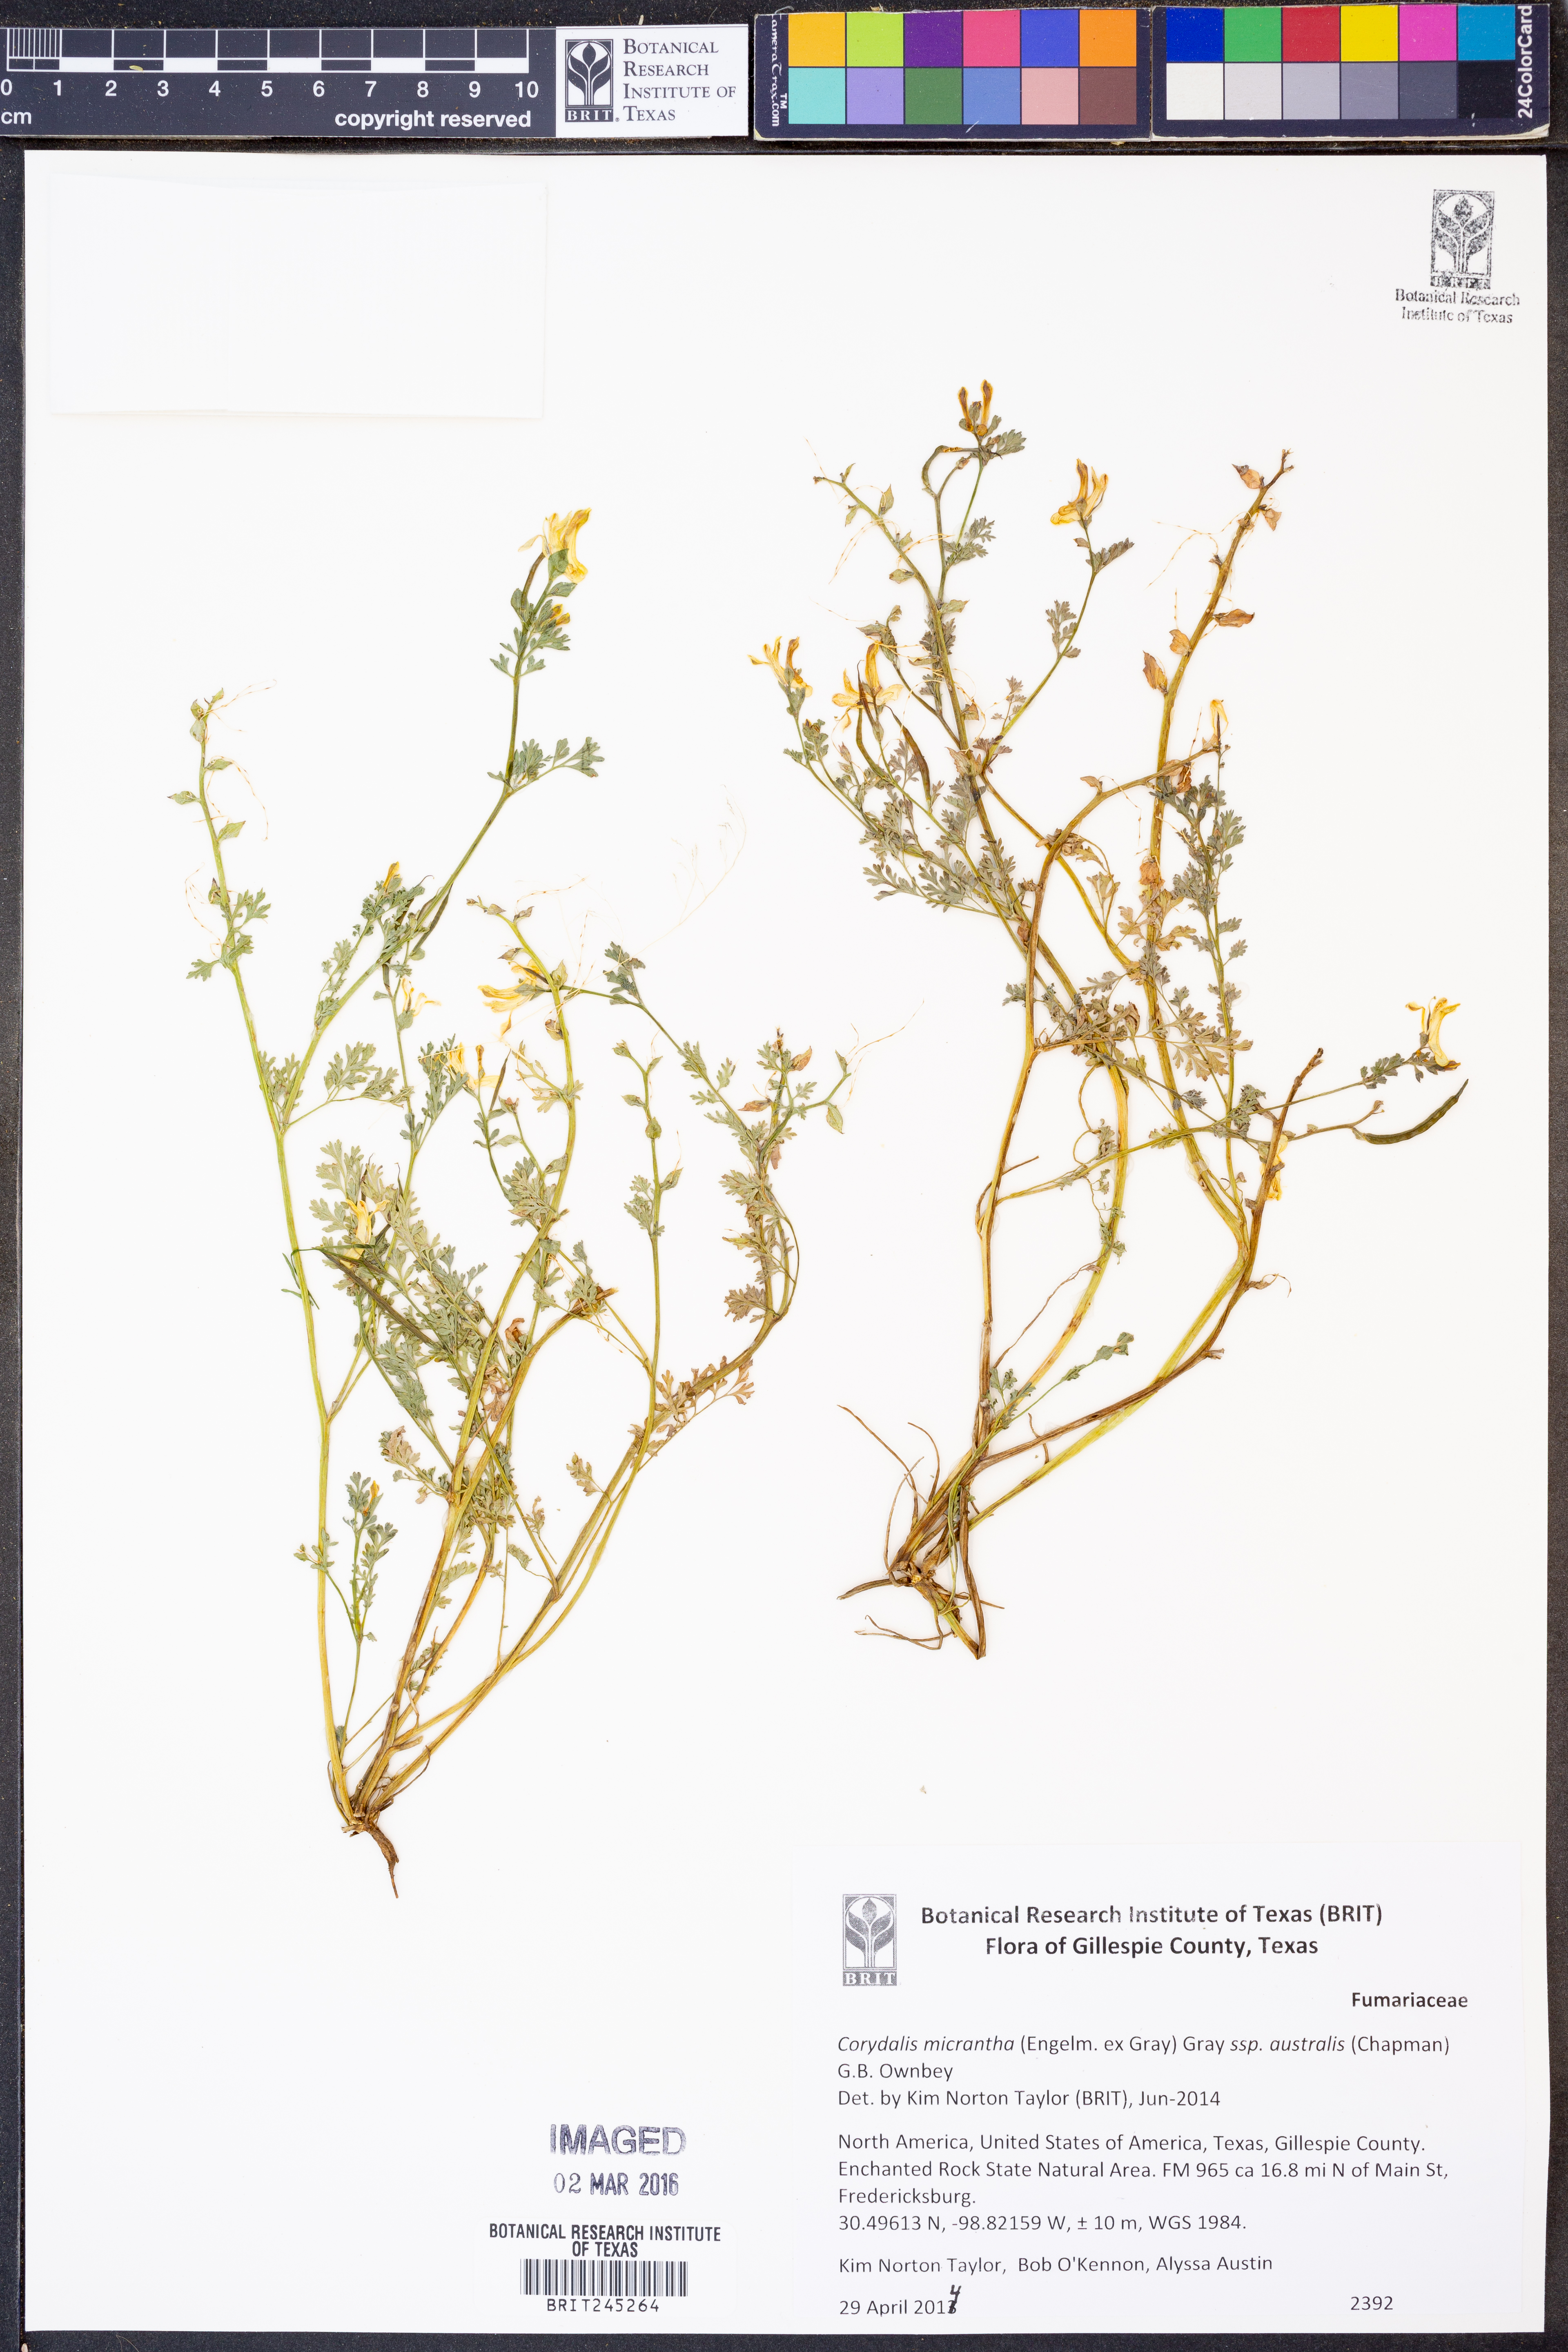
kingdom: Plantae
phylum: Tracheophyta
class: Magnoliopsida
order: Ranunculales
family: Papaveraceae
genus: Corydalis
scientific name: Corydalis micrantha
